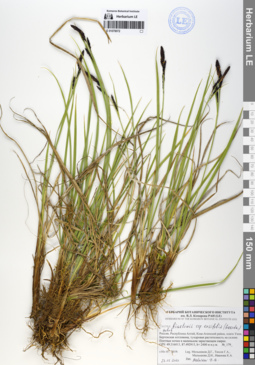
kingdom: Plantae
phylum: Tracheophyta
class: Liliopsida
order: Poales
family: Cyperaceae
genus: Carex
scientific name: Carex bigelowii
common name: Stiff sedge
